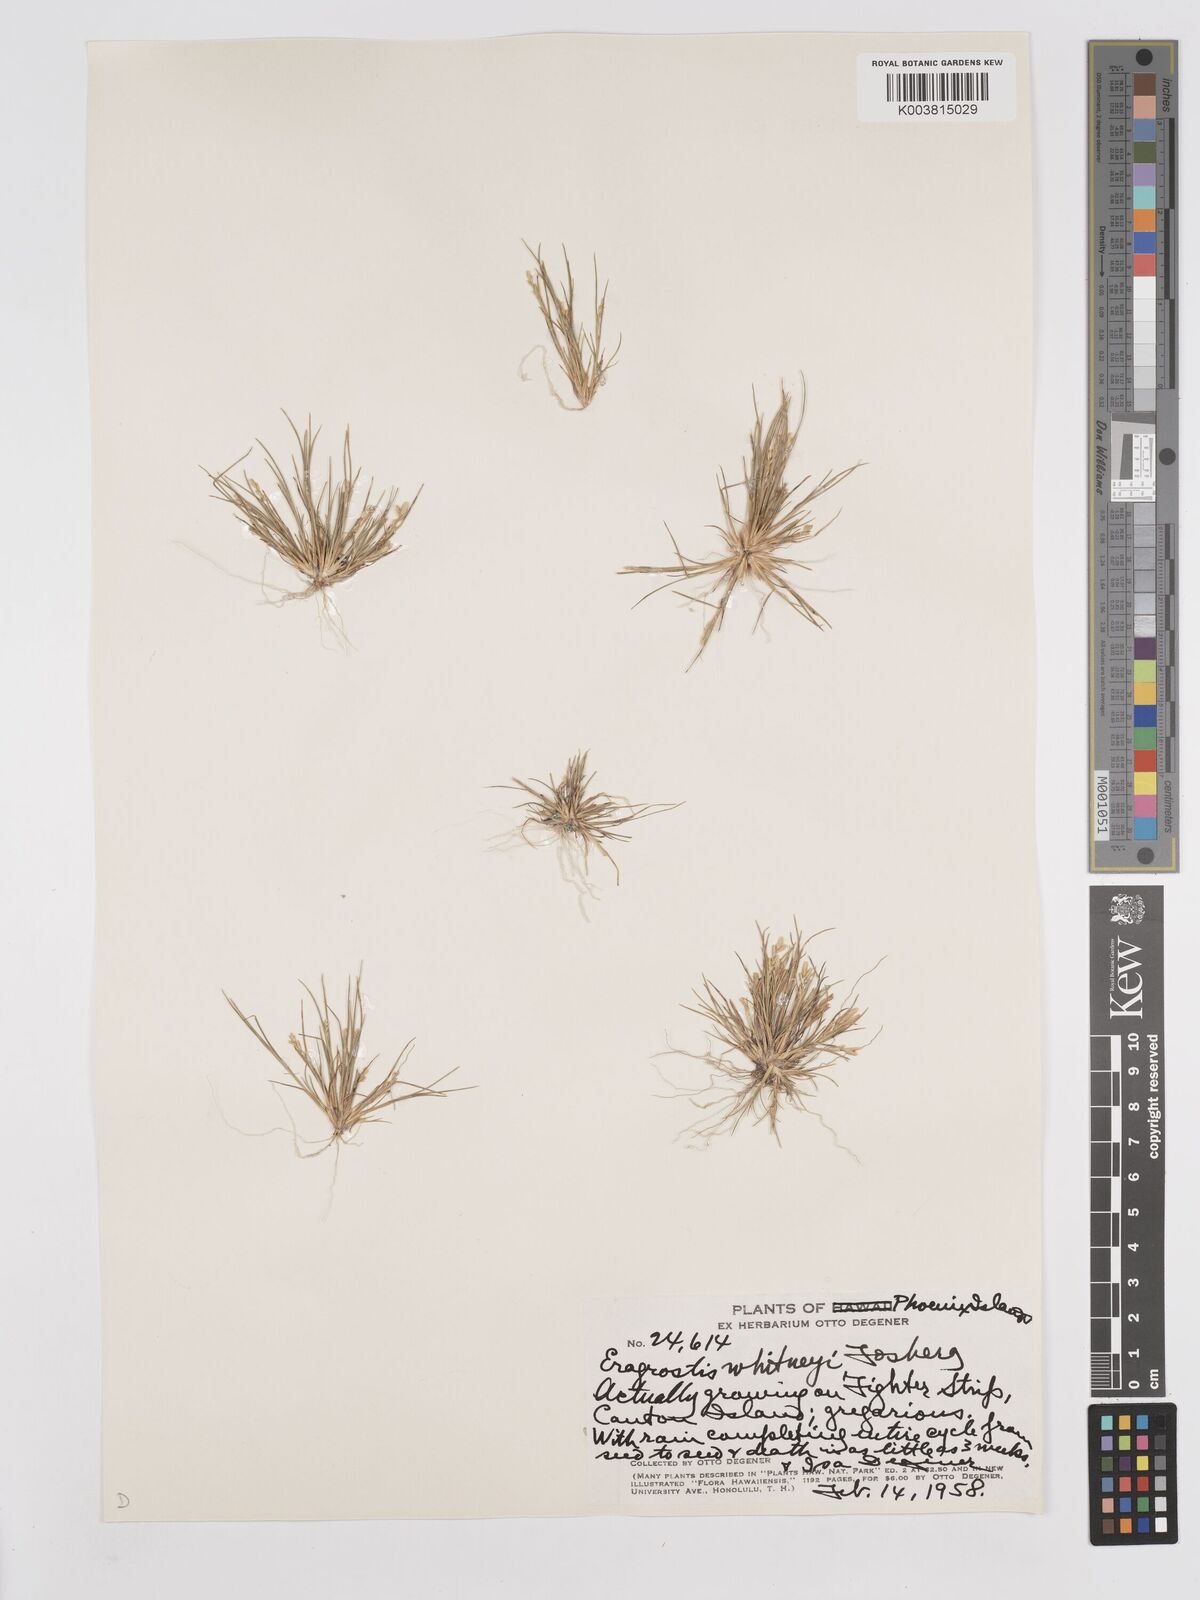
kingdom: Plantae
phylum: Tracheophyta
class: Liliopsida
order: Poales
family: Poaceae
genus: Eragrostis
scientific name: Eragrostis paupera
